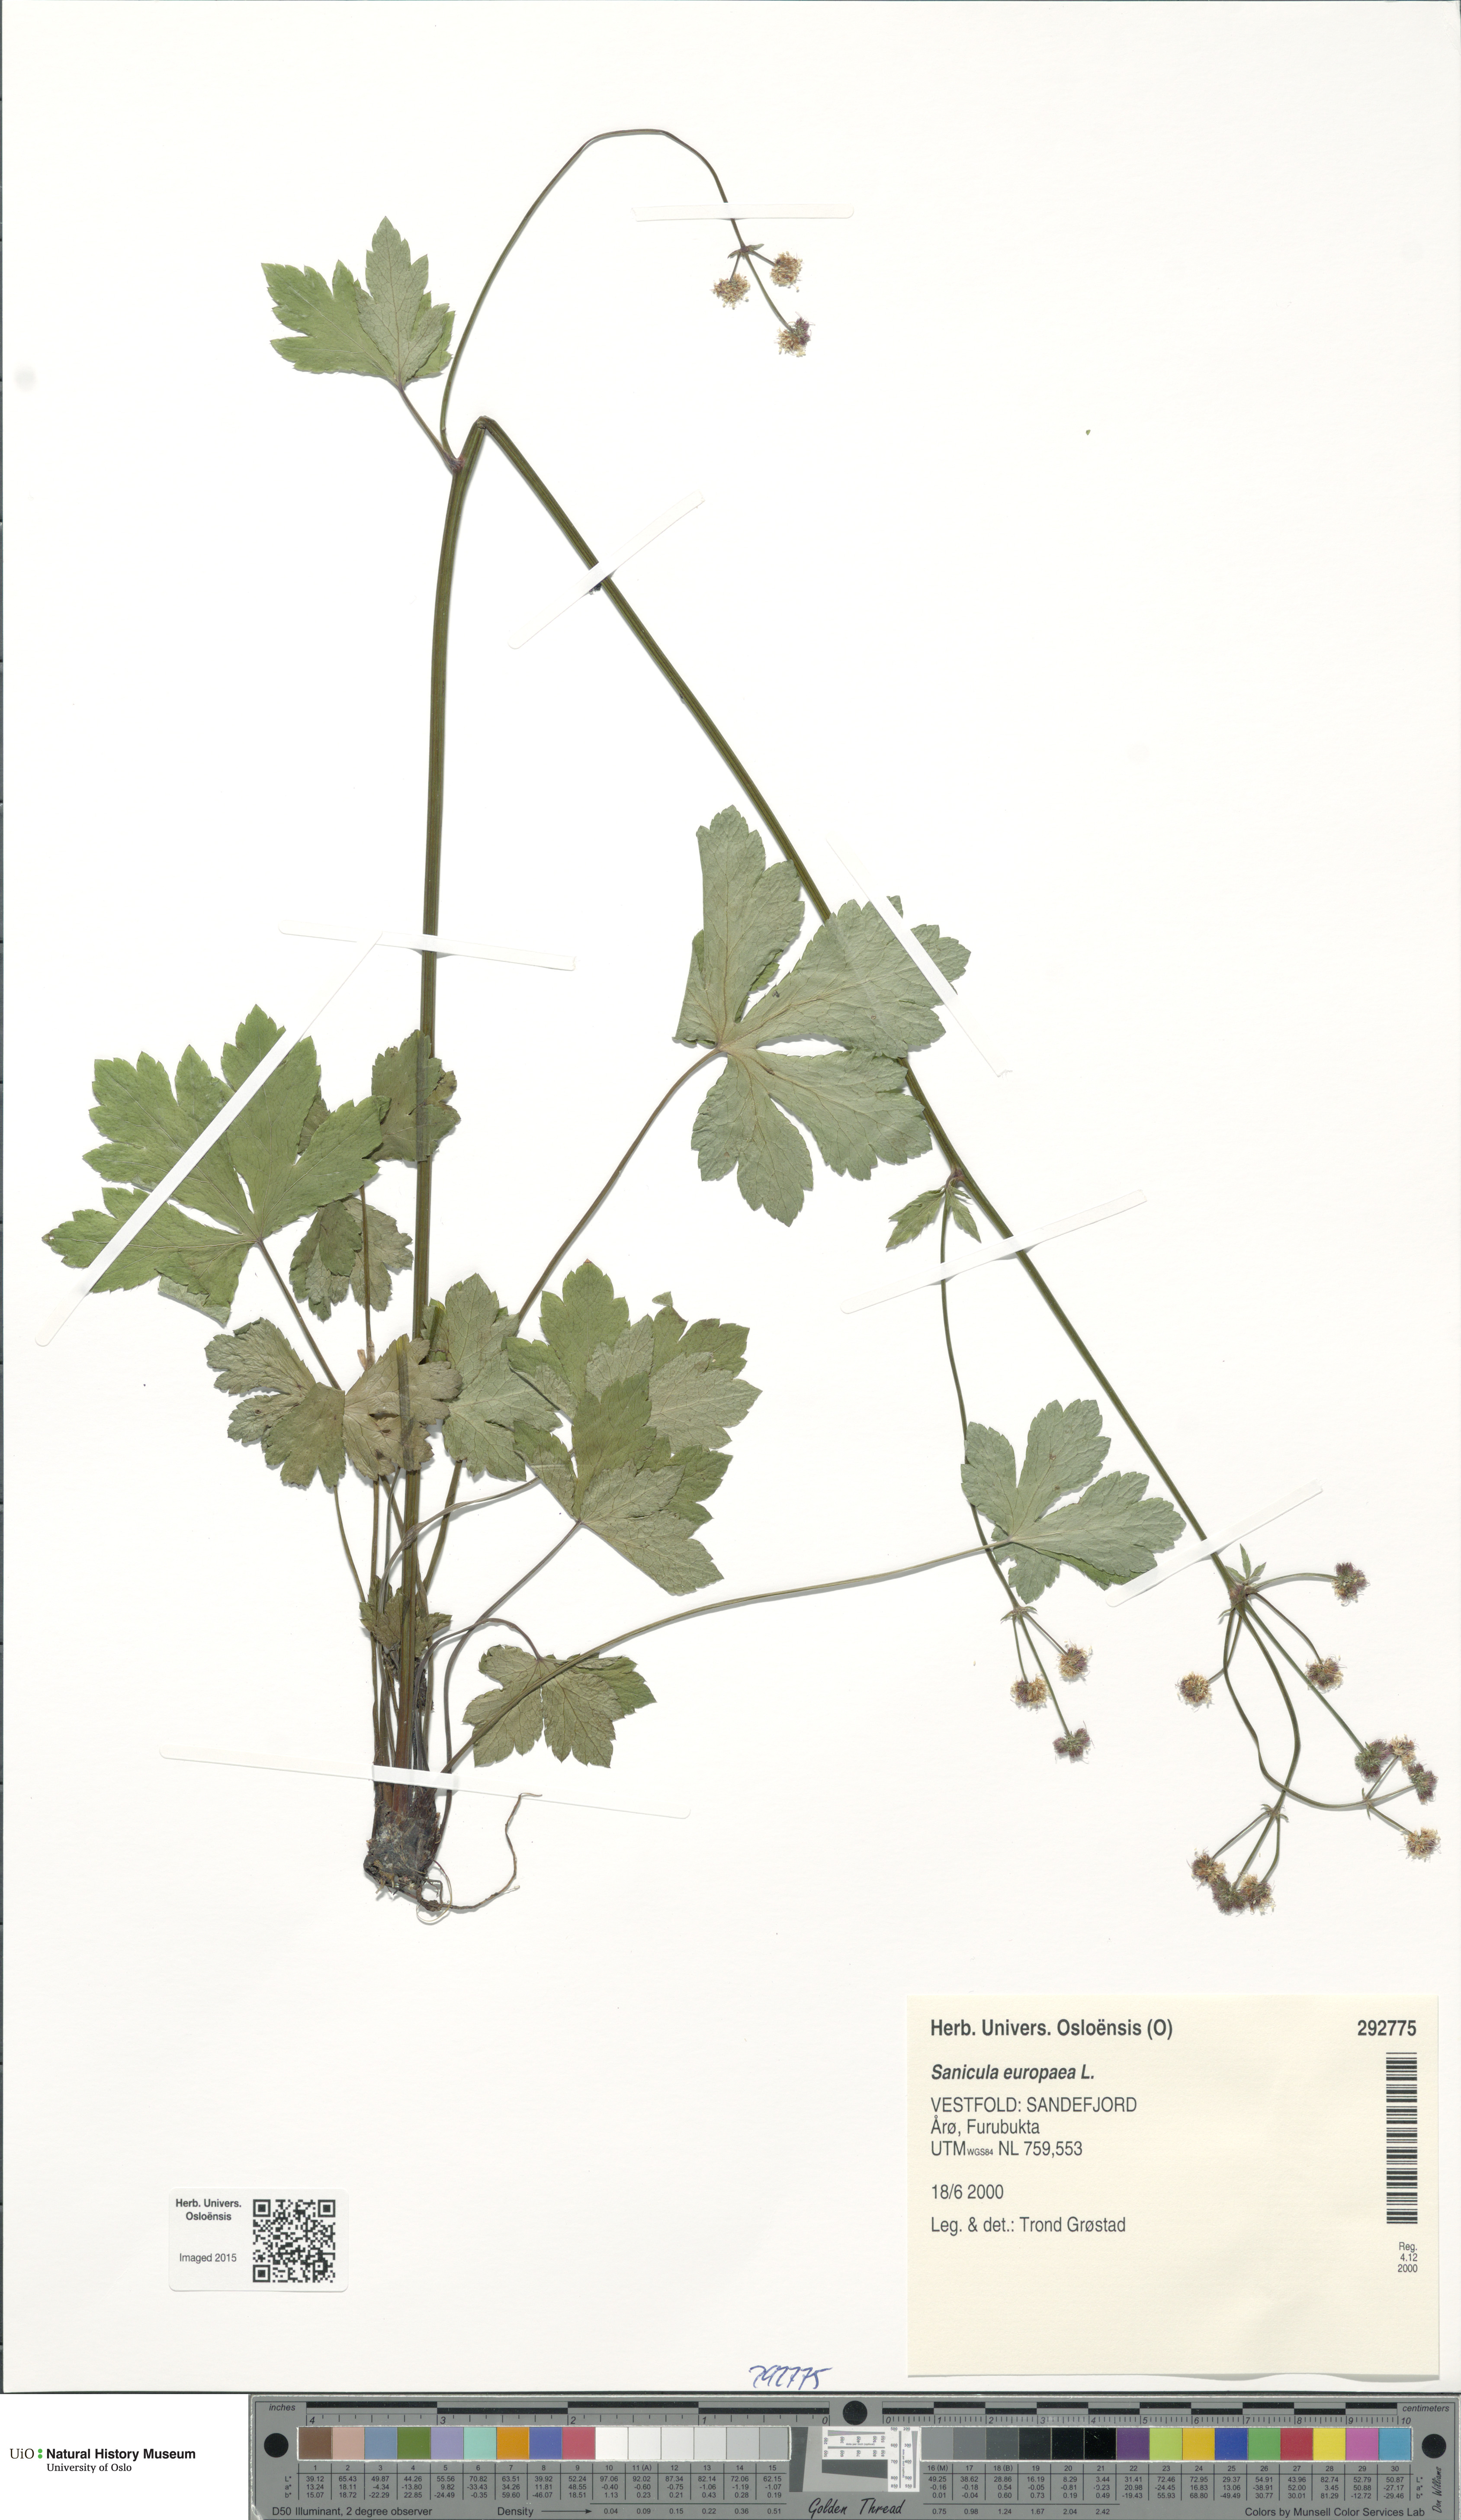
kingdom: Plantae
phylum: Tracheophyta
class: Magnoliopsida
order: Apiales
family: Apiaceae
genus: Sanicula
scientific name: Sanicula europaea
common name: Sanicle
